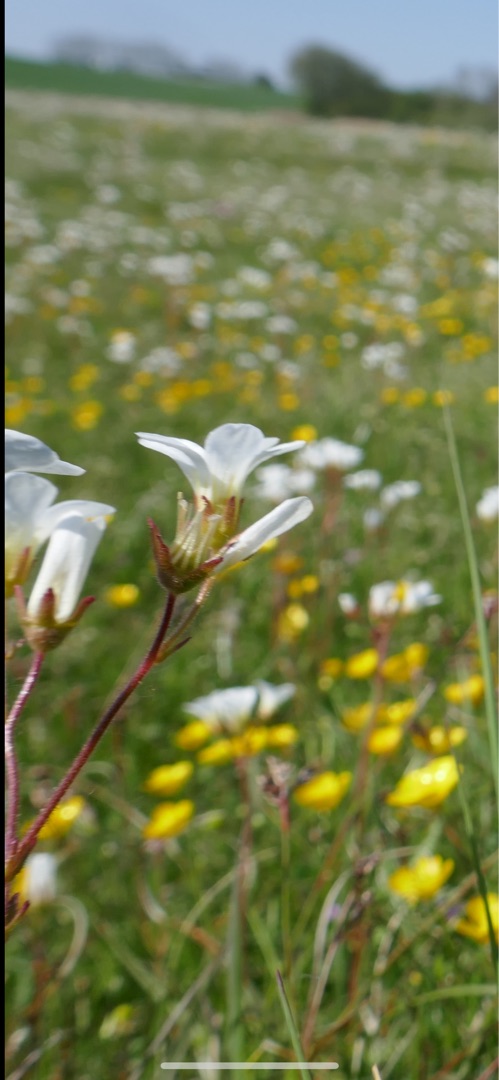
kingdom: Plantae
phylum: Tracheophyta
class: Magnoliopsida
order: Saxifragales
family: Saxifragaceae
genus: Saxifraga
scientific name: Saxifraga granulata
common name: Kornet stenbræk
